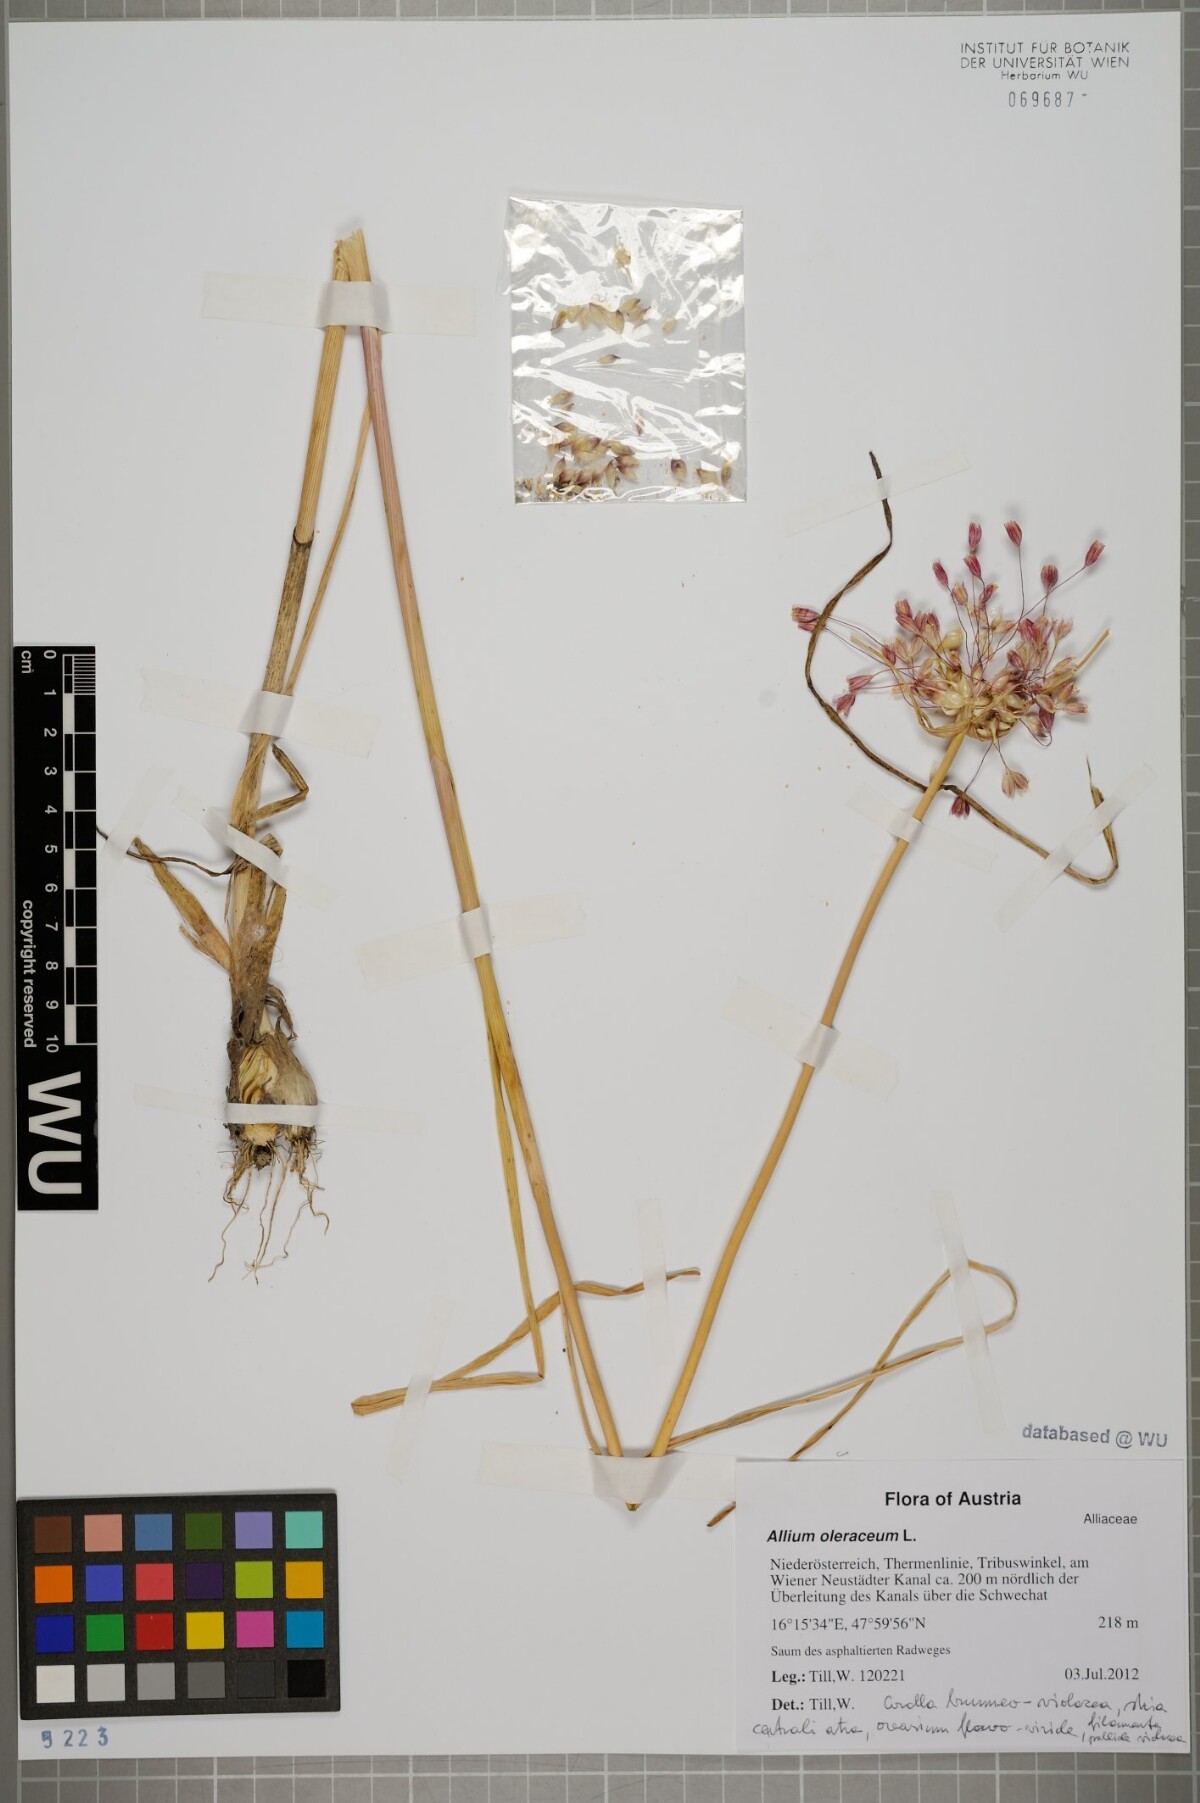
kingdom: Plantae
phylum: Tracheophyta
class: Liliopsida
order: Asparagales
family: Amaryllidaceae
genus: Allium
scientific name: Allium oleraceum
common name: Field garlic
